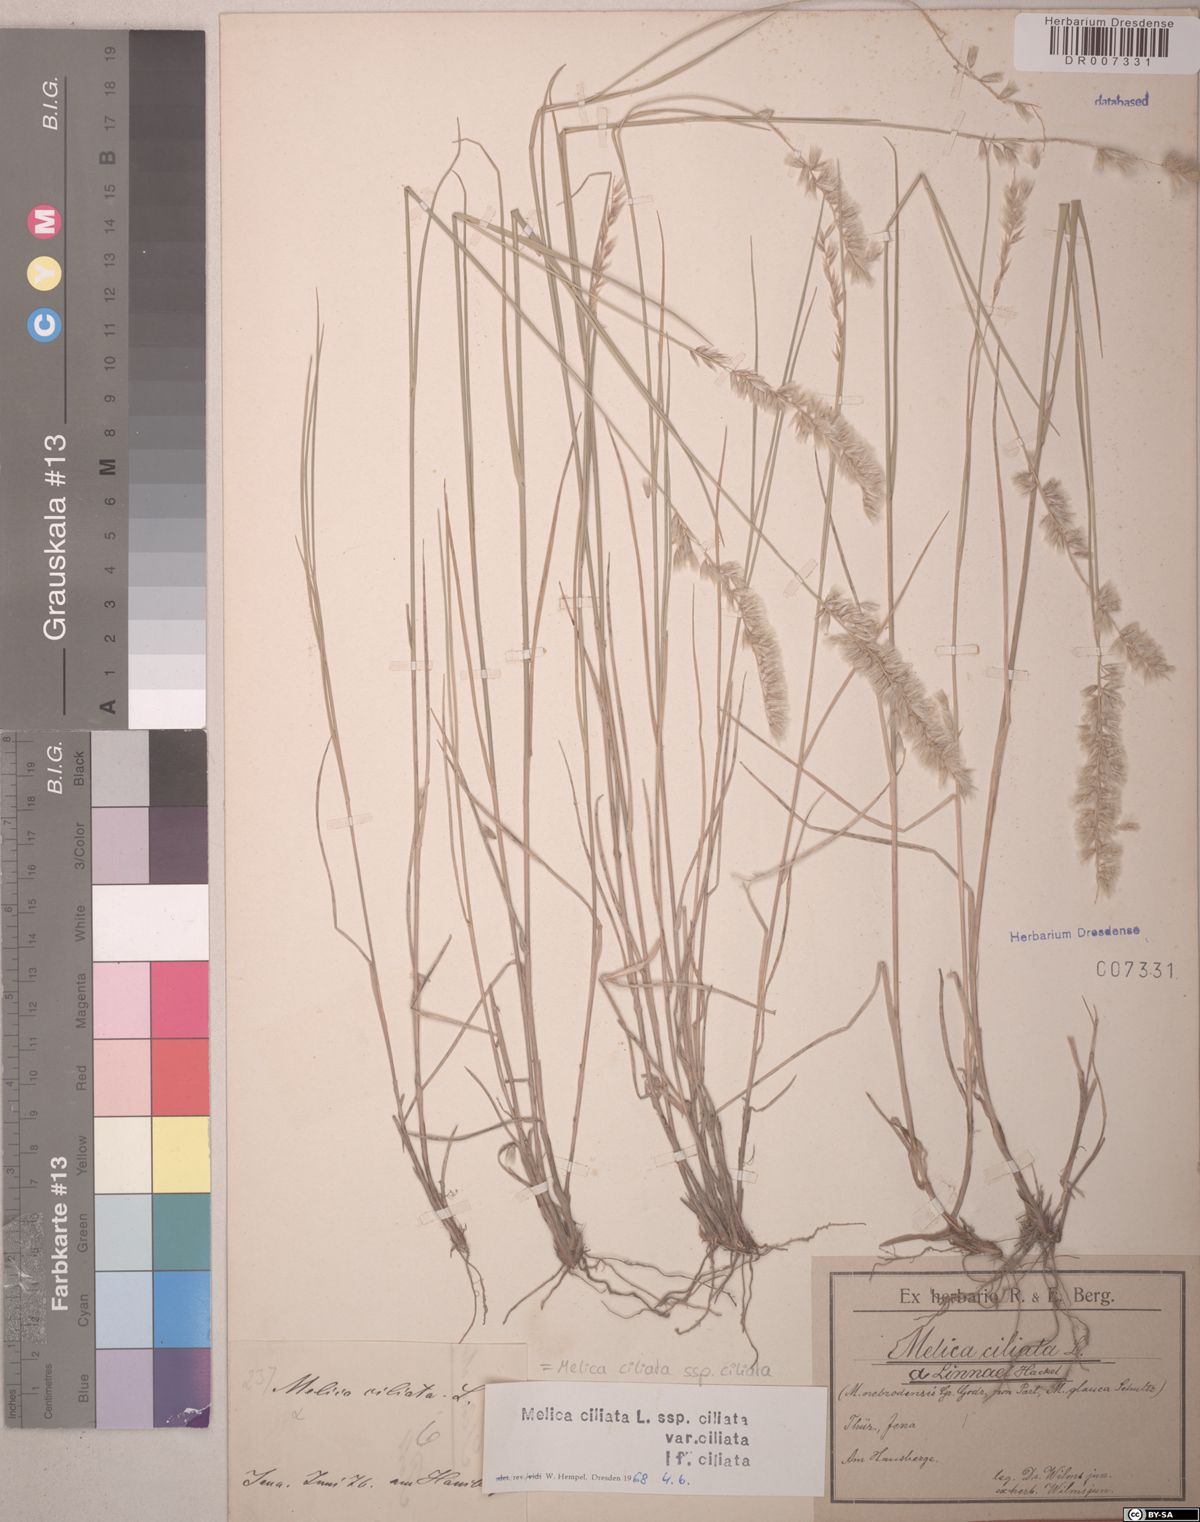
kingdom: Plantae
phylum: Tracheophyta
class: Liliopsida
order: Poales
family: Poaceae
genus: Melica
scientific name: Melica ciliata
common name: Hairy melicgrass
